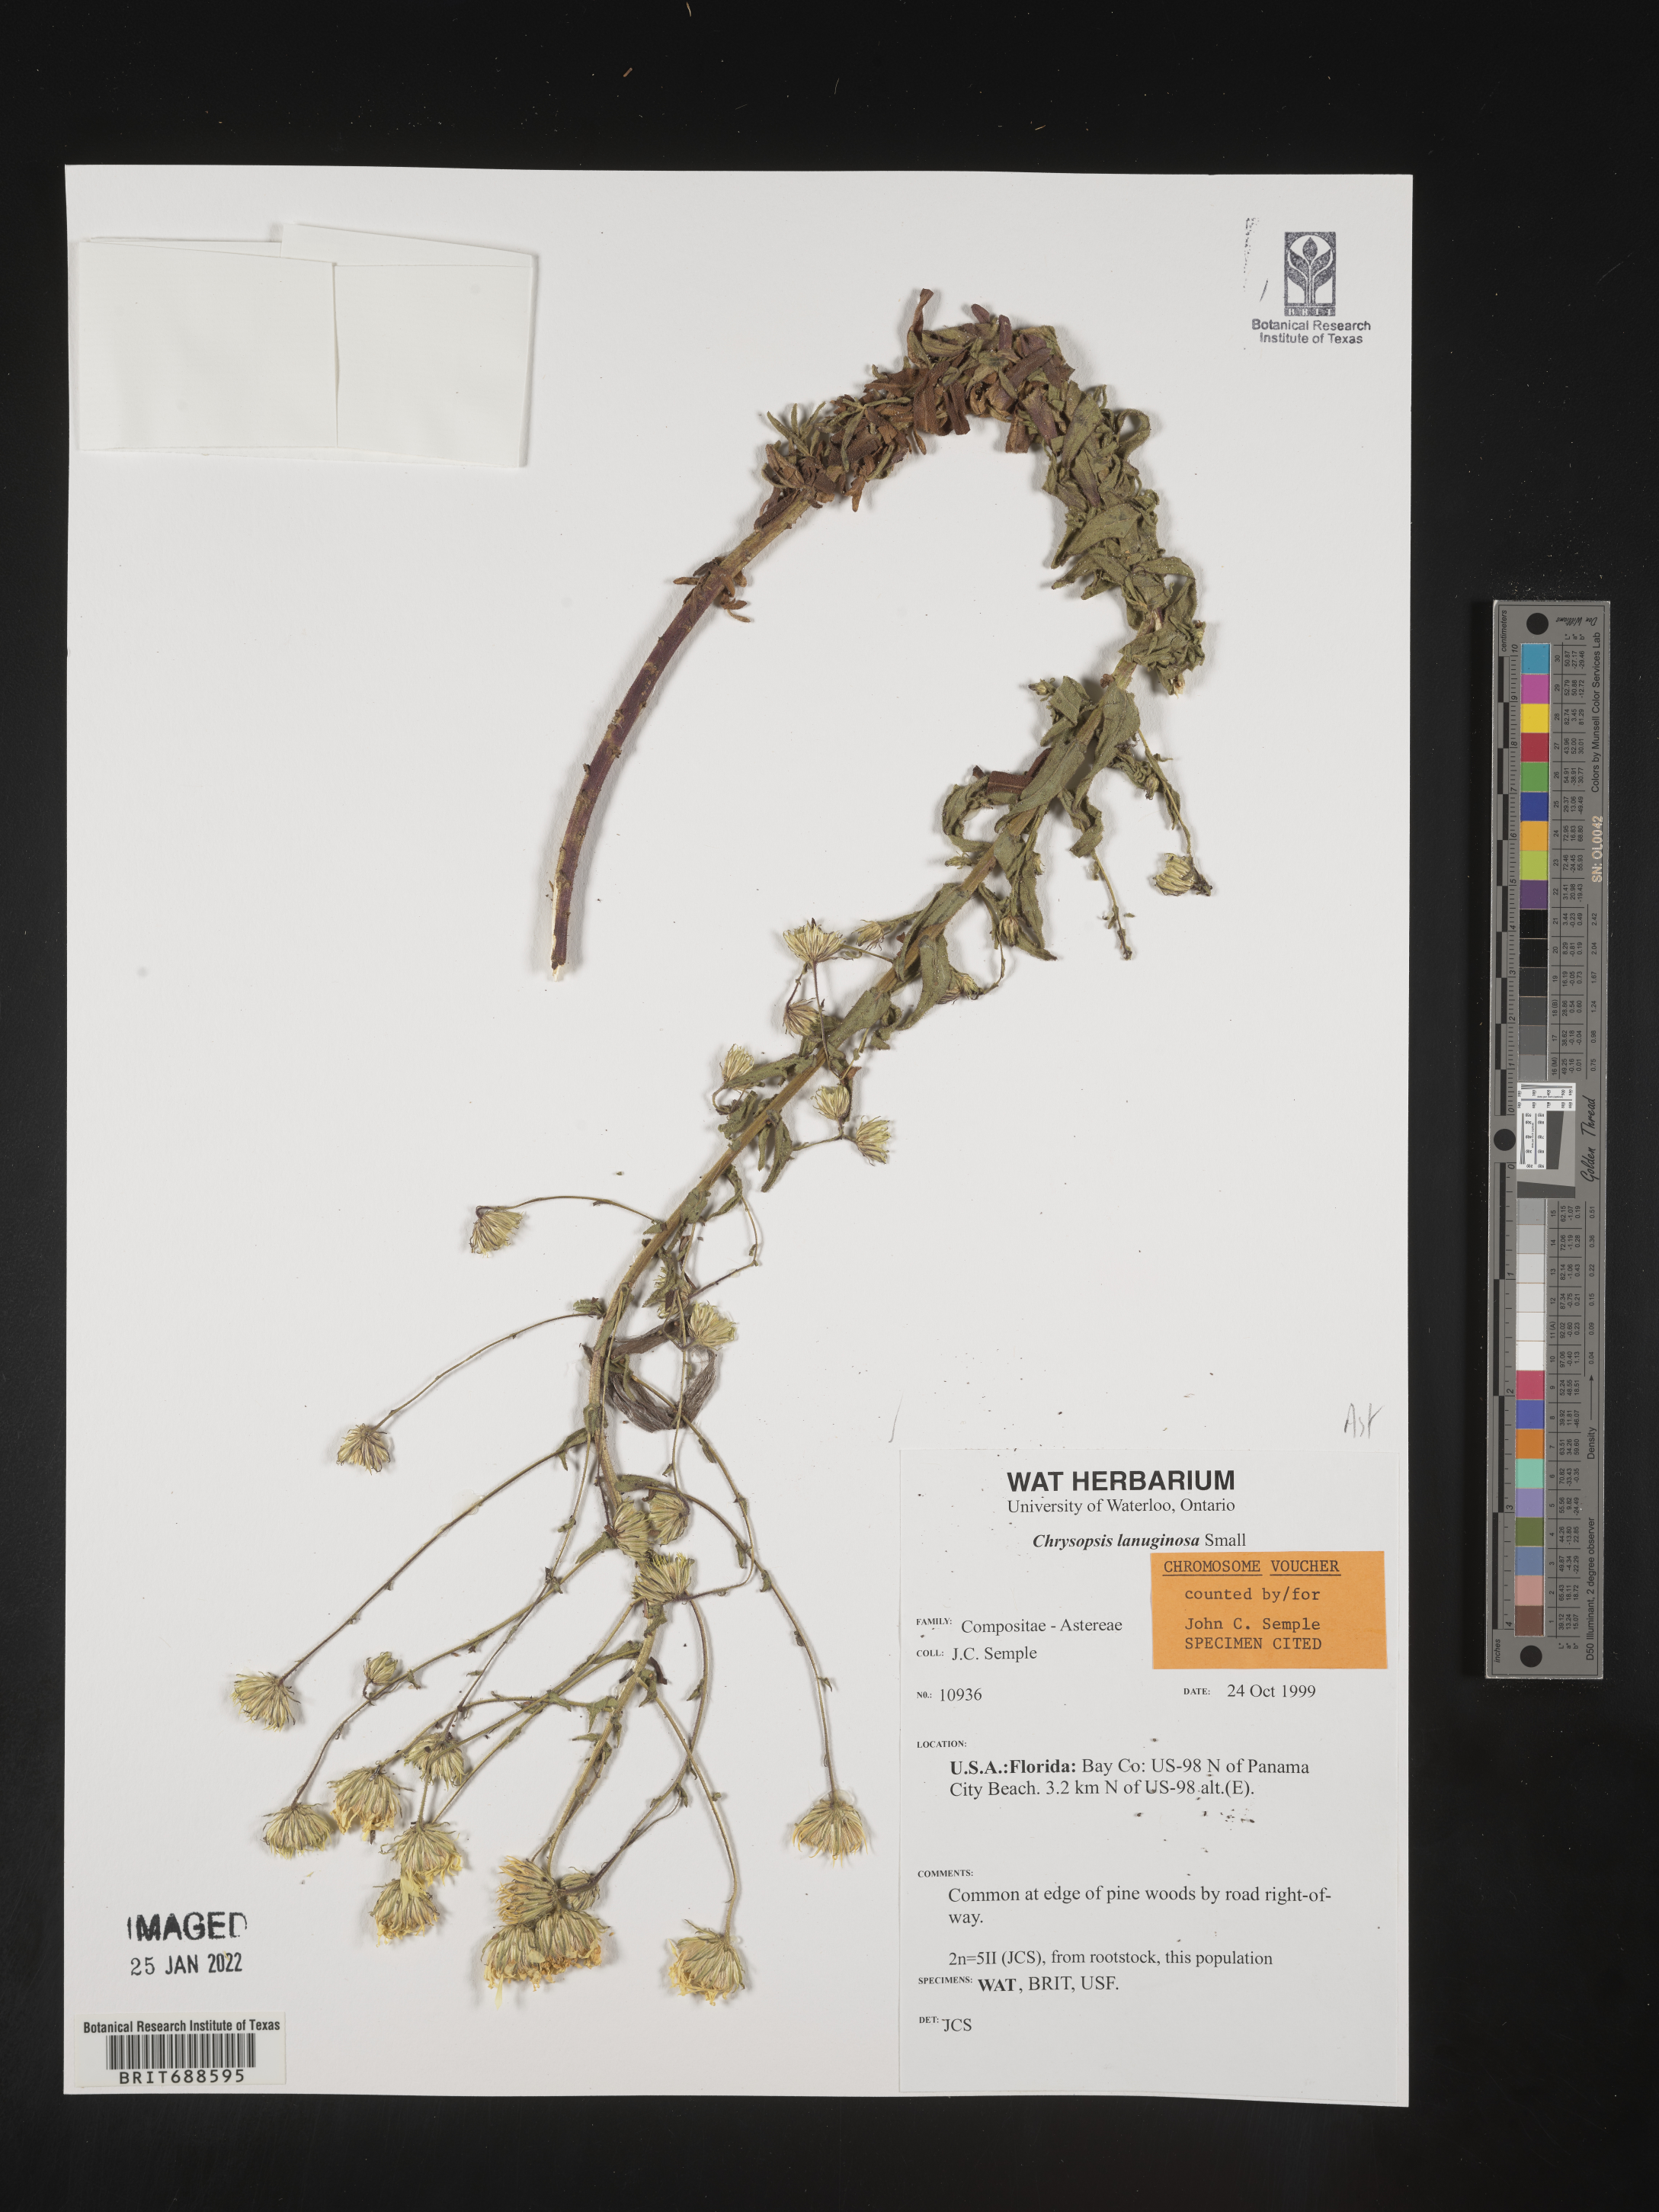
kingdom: Plantae
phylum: Tracheophyta
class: Magnoliopsida
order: Asterales
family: Asteraceae
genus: Chrysopsis
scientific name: Chrysopsis lanuginosa
